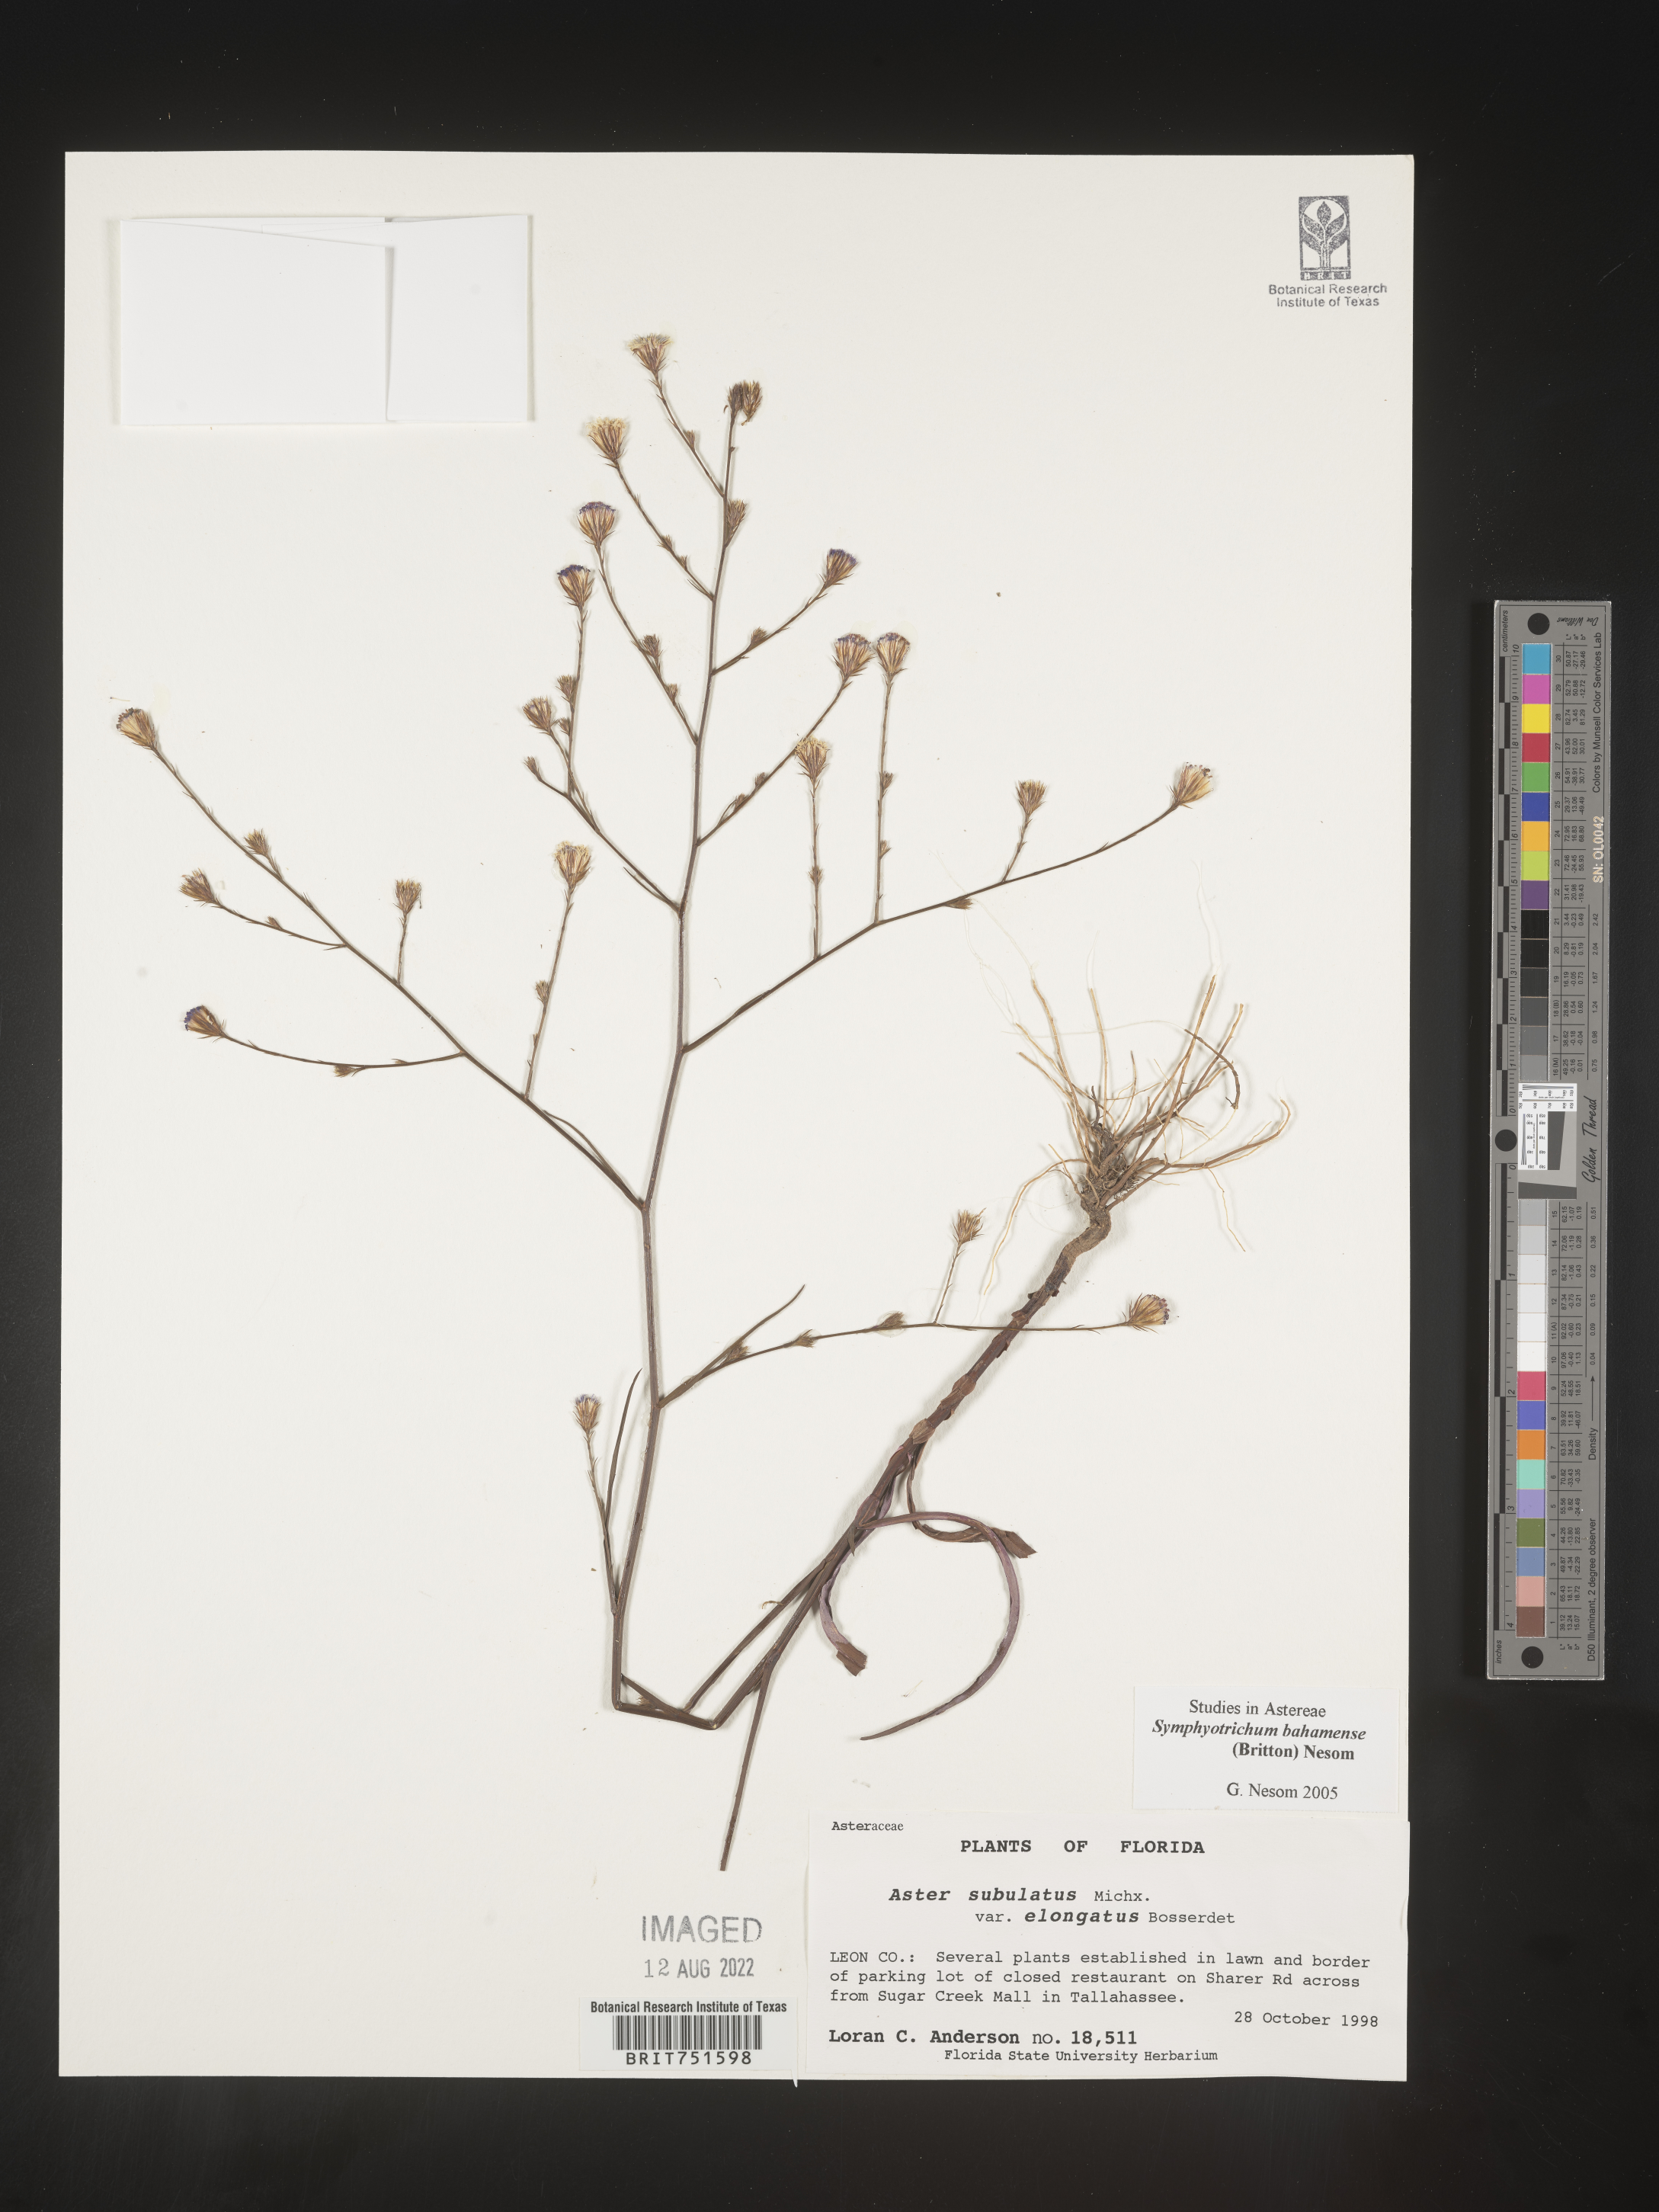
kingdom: Plantae
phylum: Tracheophyta
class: Magnoliopsida
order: Asterales
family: Asteraceae
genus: Symphyotrichum
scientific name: Symphyotrichum subulatum
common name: Annual saltmarsh aster
